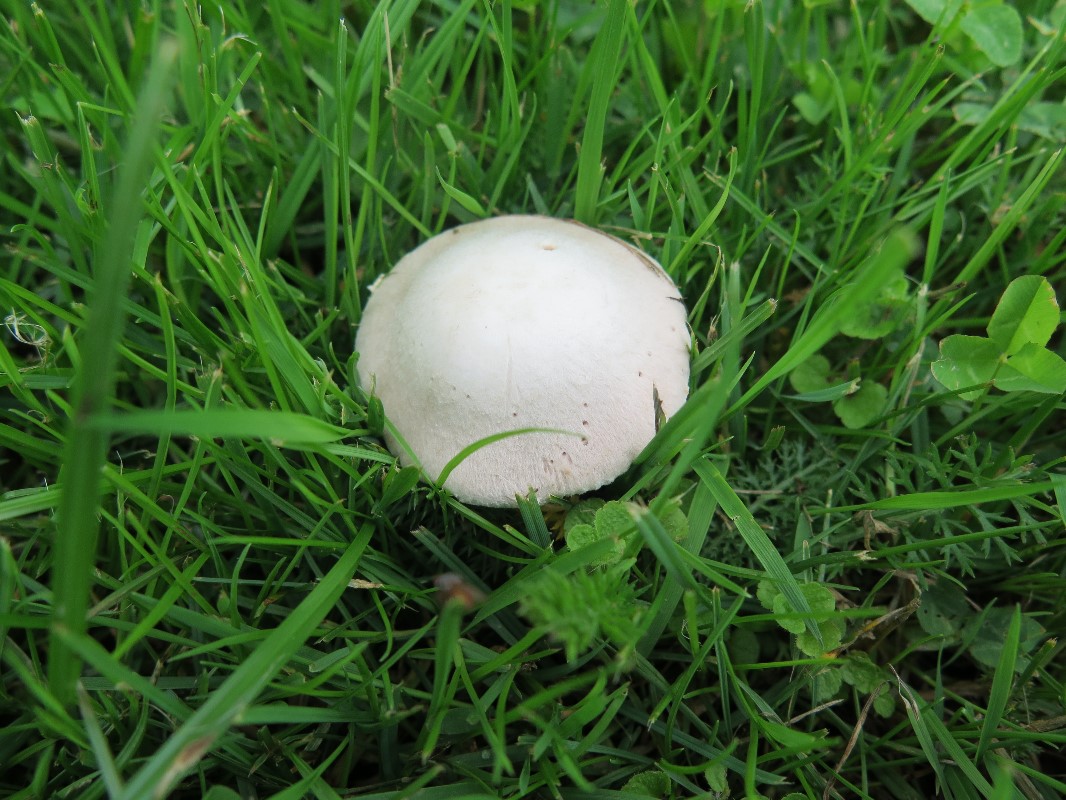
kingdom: Fungi
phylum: Basidiomycota
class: Agaricomycetes
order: Agaricales
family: Agaricaceae
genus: Agaricus
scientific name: Agaricus campestris
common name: mark-champignon
